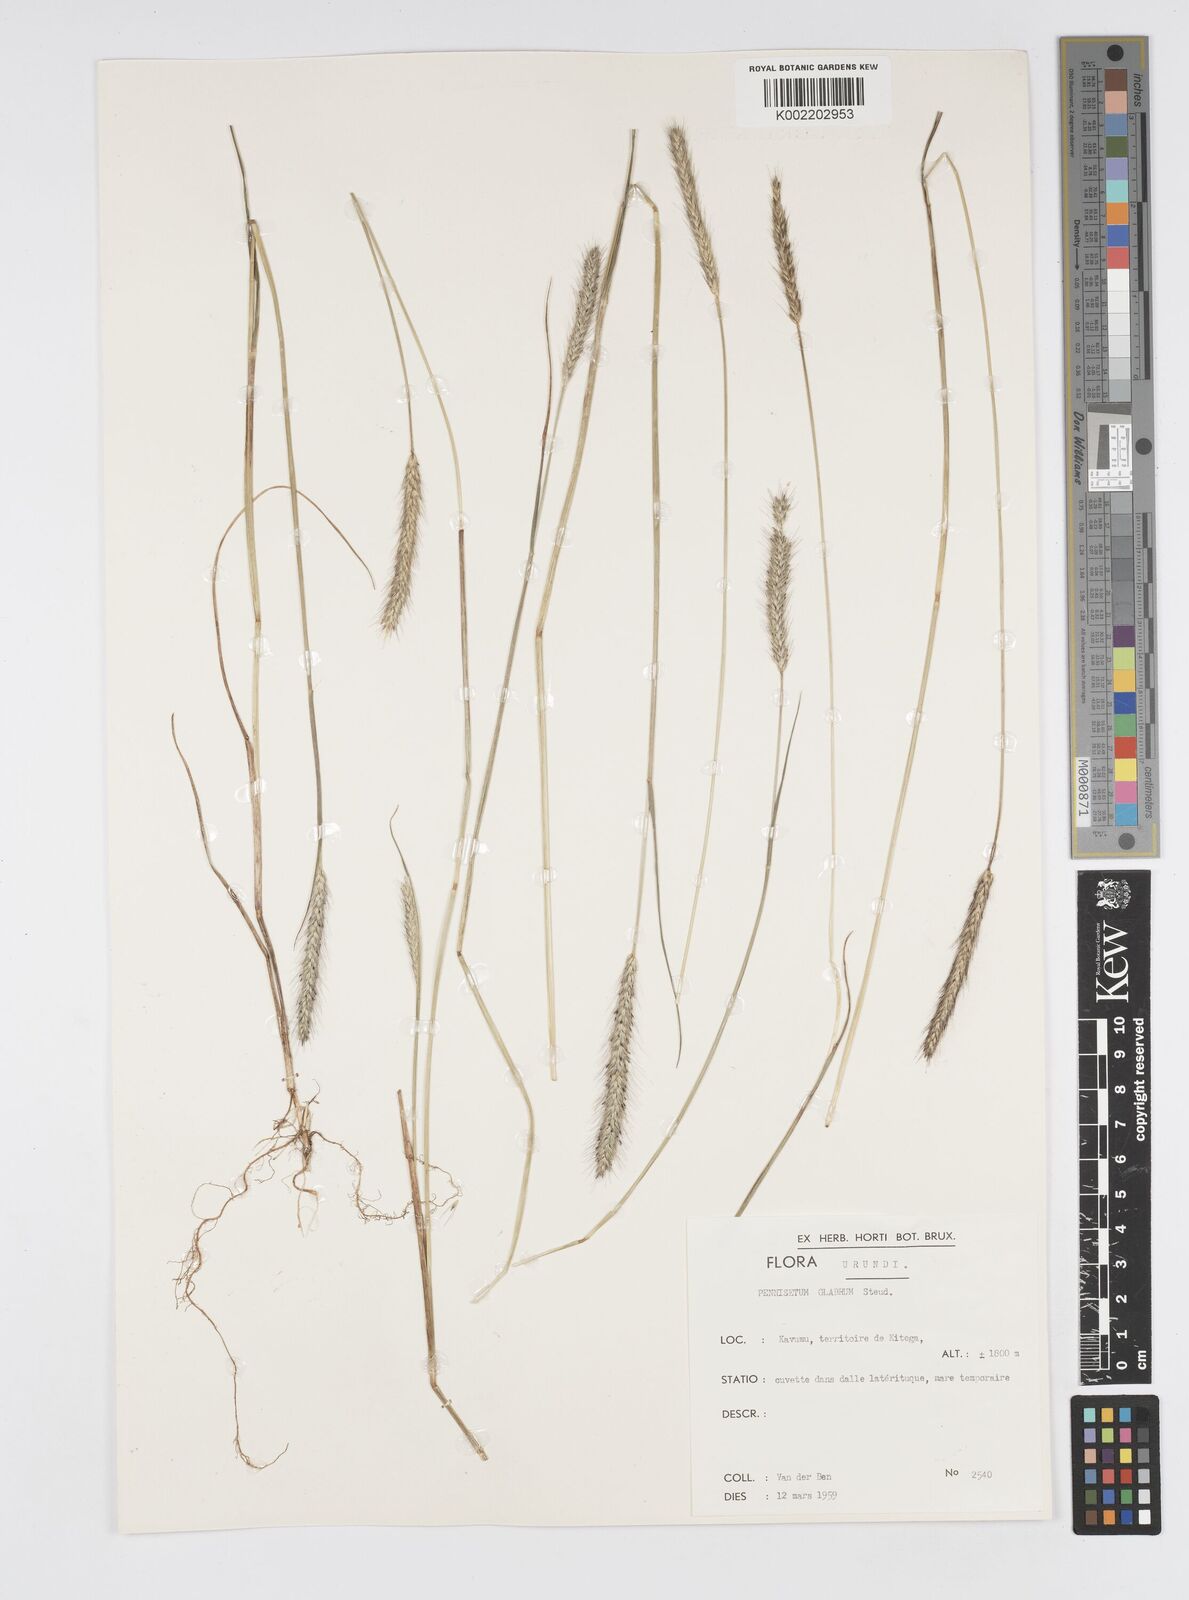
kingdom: Plantae
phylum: Tracheophyta
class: Liliopsida
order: Poales
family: Poaceae
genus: Cenchrus
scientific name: Cenchrus geniculatus
